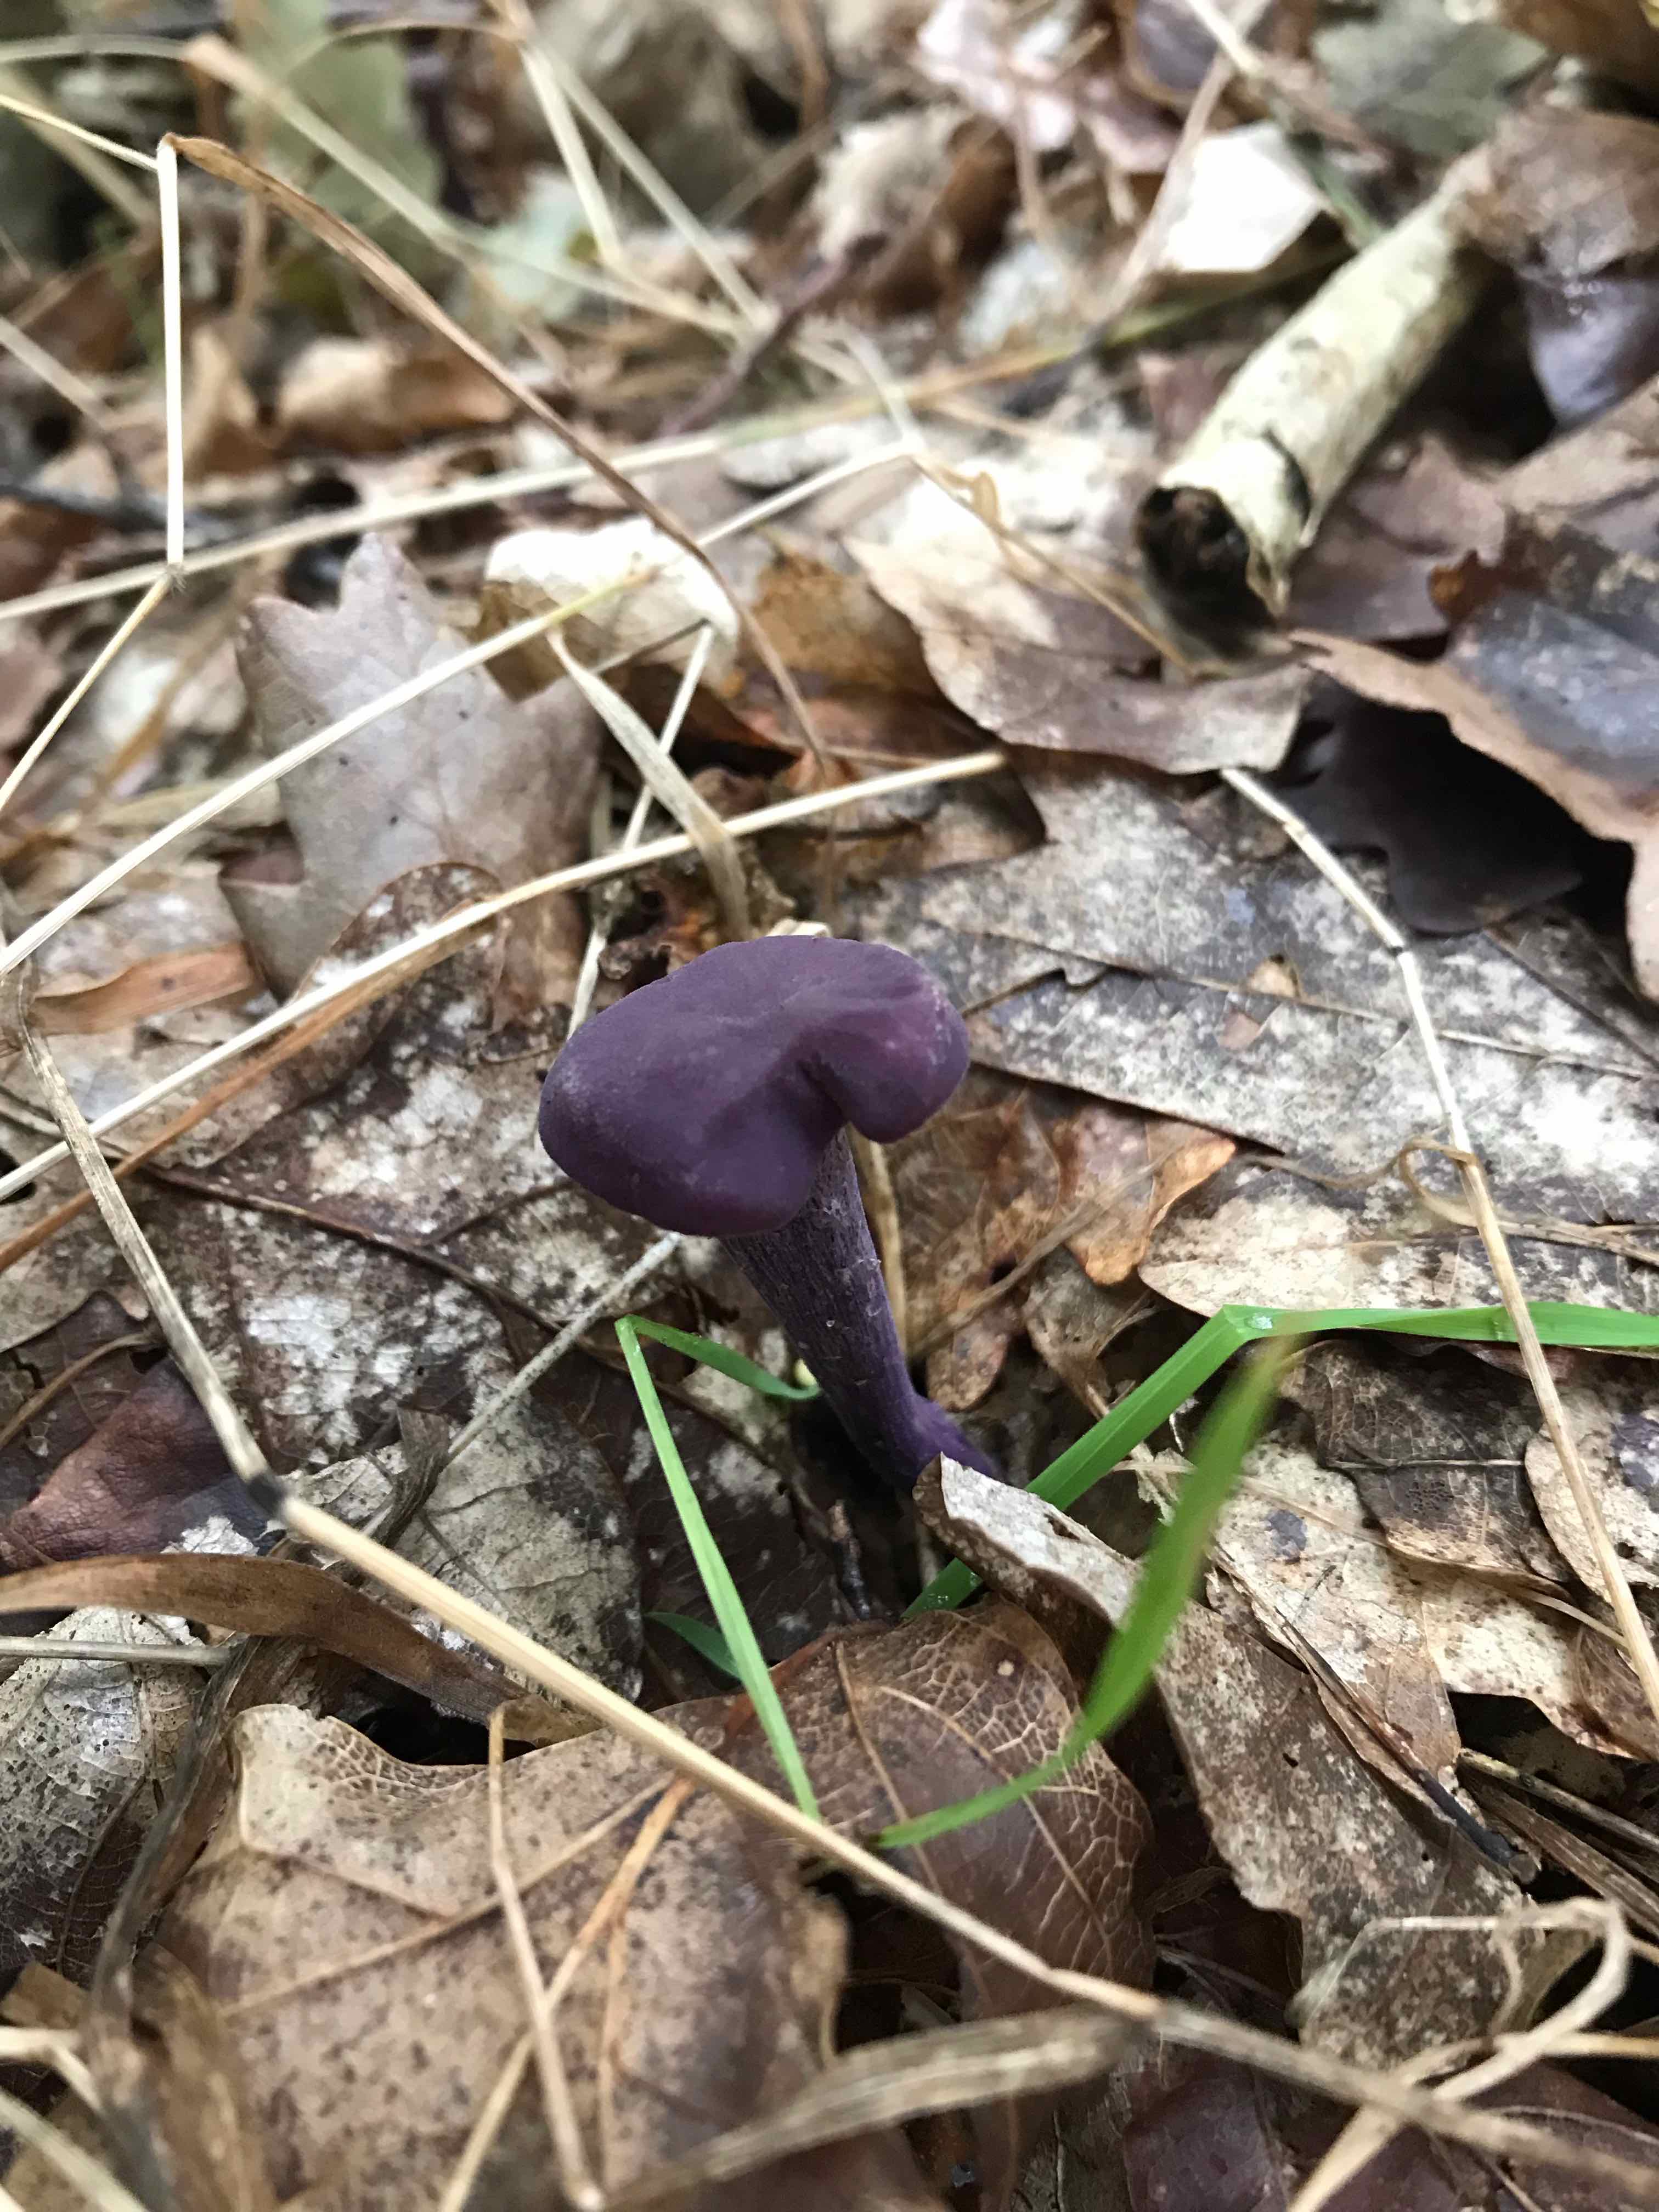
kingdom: Fungi
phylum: Basidiomycota
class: Agaricomycetes
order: Agaricales
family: Hydnangiaceae
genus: Laccaria
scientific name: Laccaria amethystina
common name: violet ametysthat
